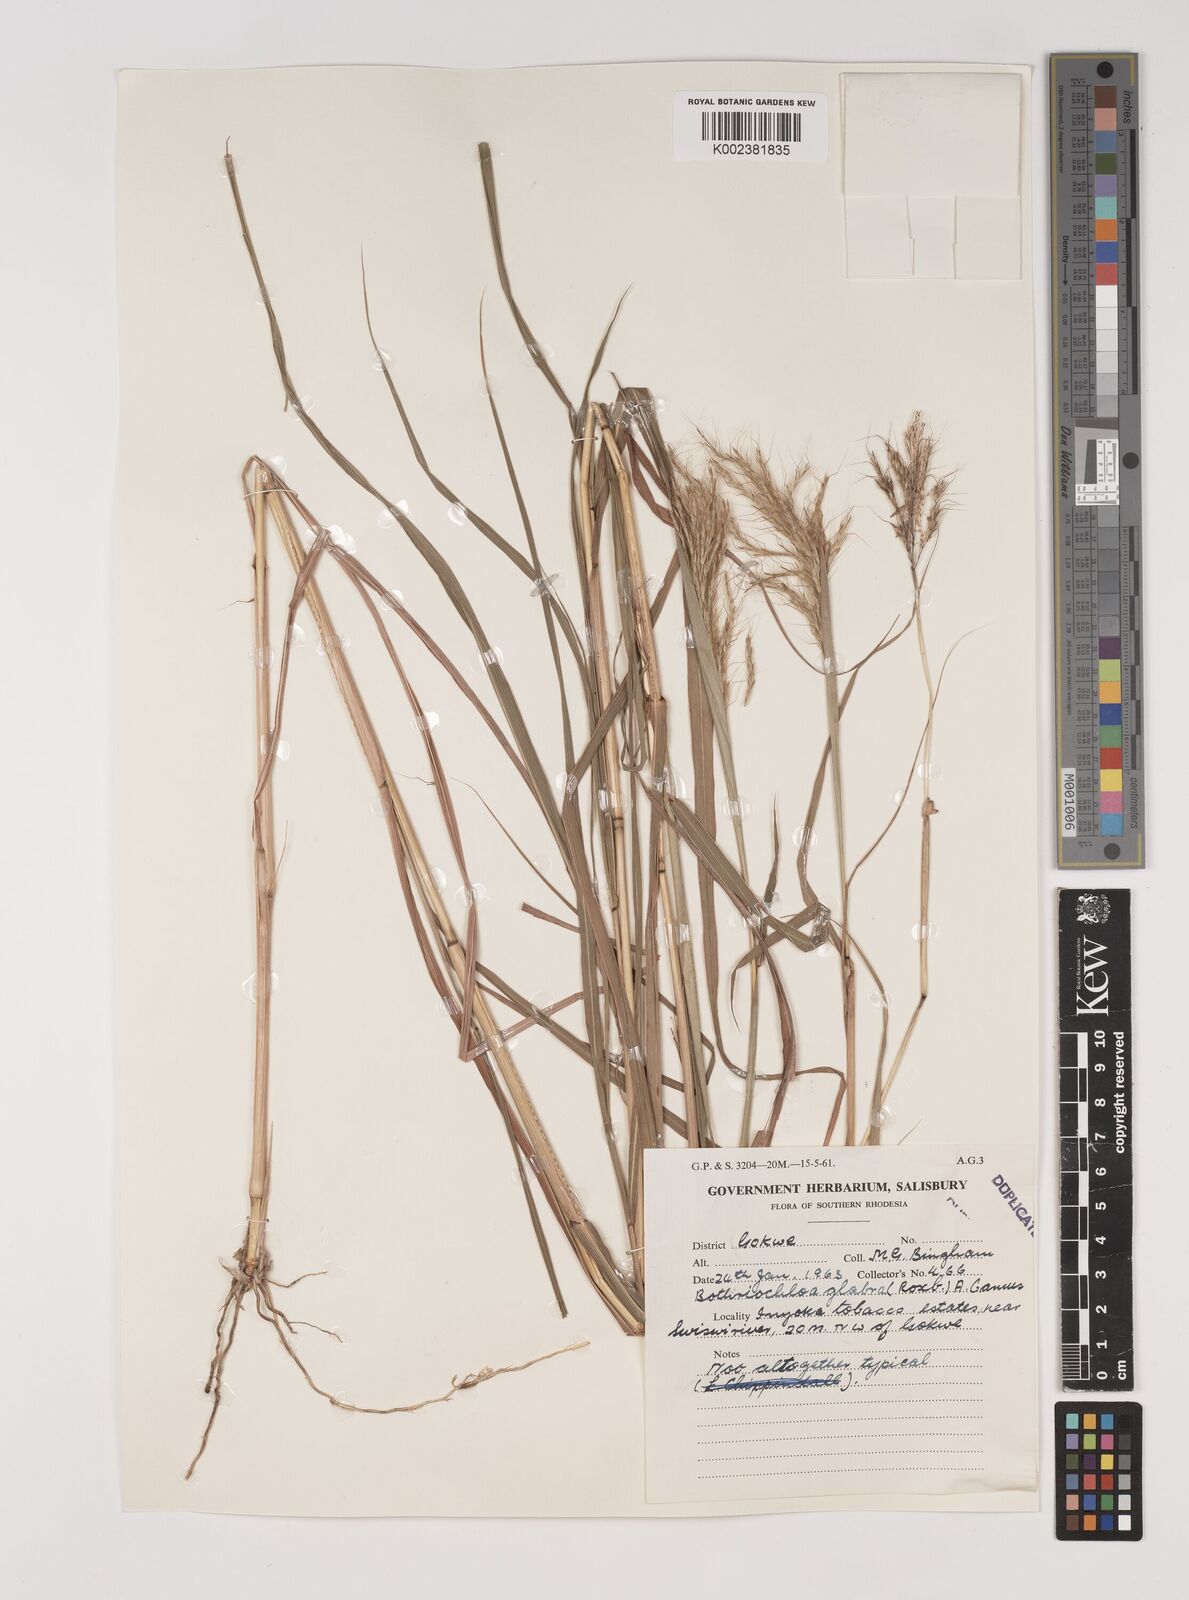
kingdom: Plantae
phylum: Tracheophyta
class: Liliopsida
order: Poales
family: Poaceae
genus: Bothriochloa
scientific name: Bothriochloa bladhii
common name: Caucasian bluestem
